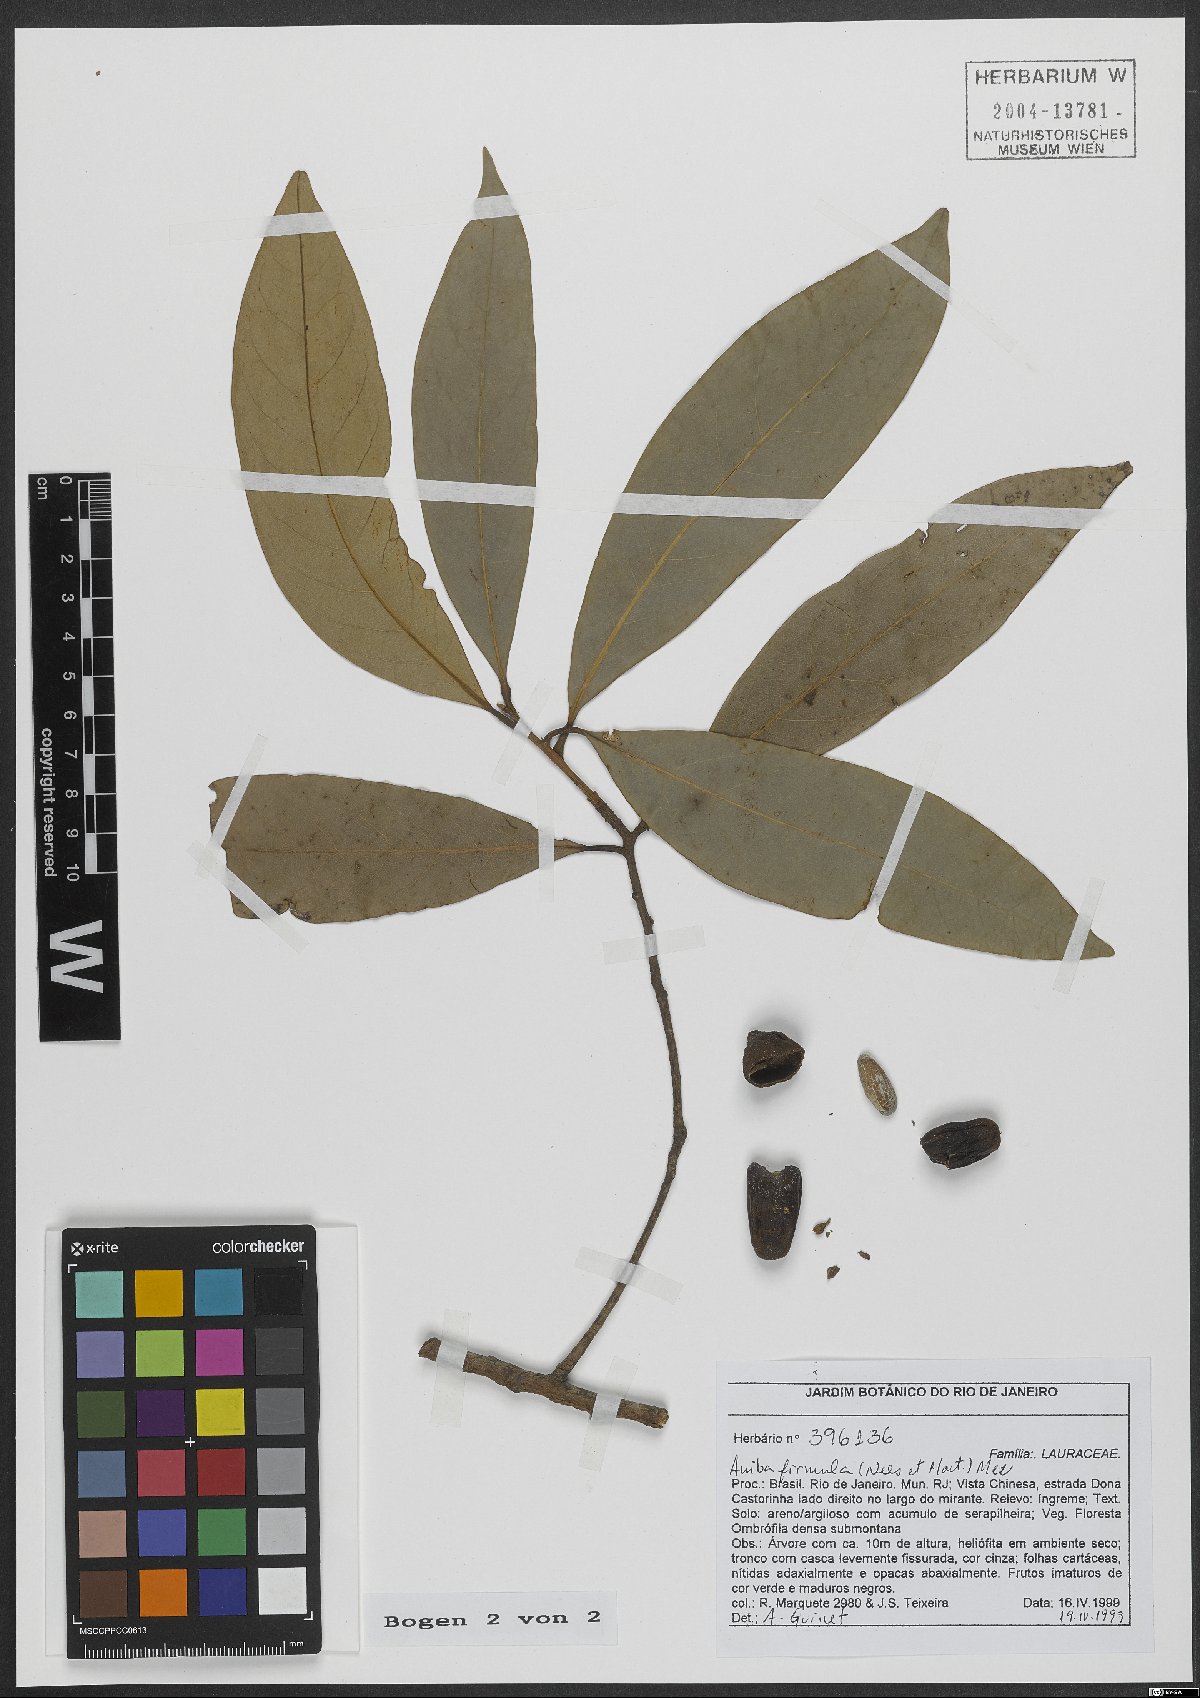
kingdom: Plantae
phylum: Tracheophyta
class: Magnoliopsida
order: Laurales
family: Lauraceae
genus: Aniba
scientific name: Aniba firmula
